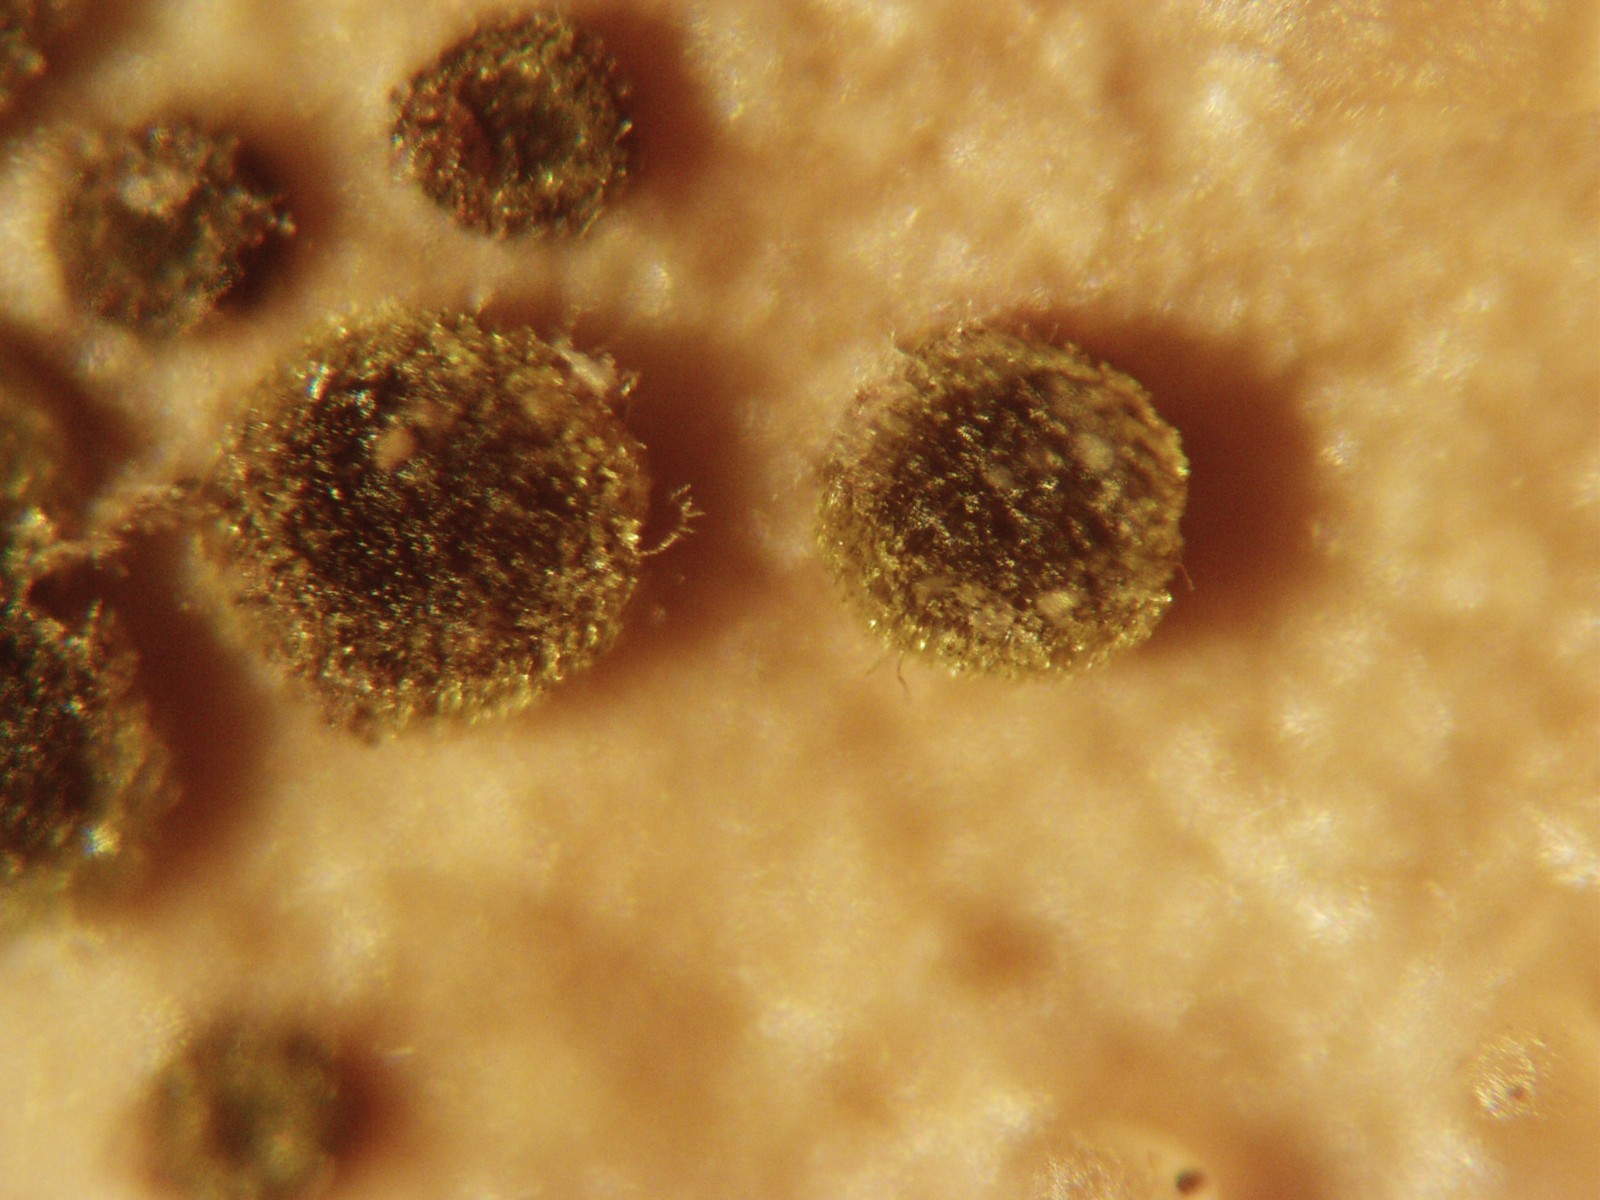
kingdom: Fungi
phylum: Ascomycota
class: Leotiomycetes
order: Helotiales
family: Cenangiaceae
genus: Trochila
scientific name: Trochila craterium
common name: vedbend-lågskive
